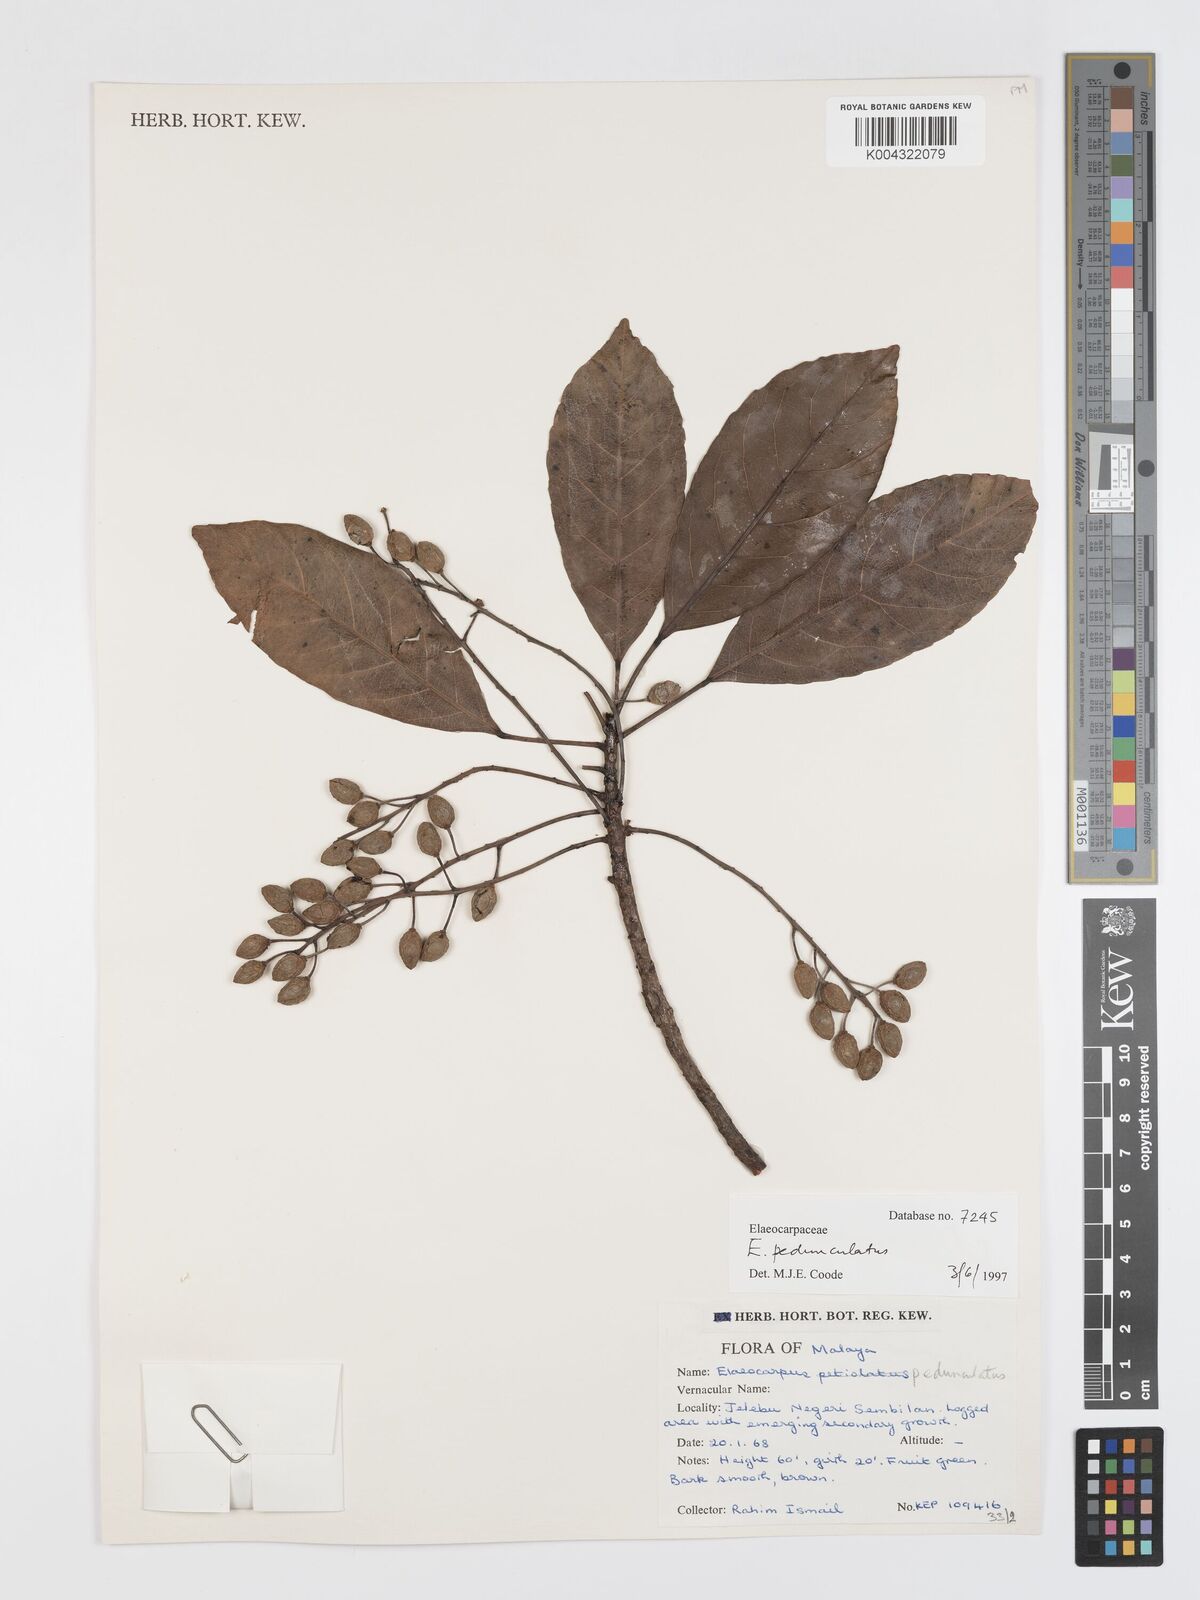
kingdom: Plantae
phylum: Tracheophyta
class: Magnoliopsida
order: Oxalidales
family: Elaeocarpaceae
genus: Elaeocarpus
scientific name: Elaeocarpus pedunculatus
